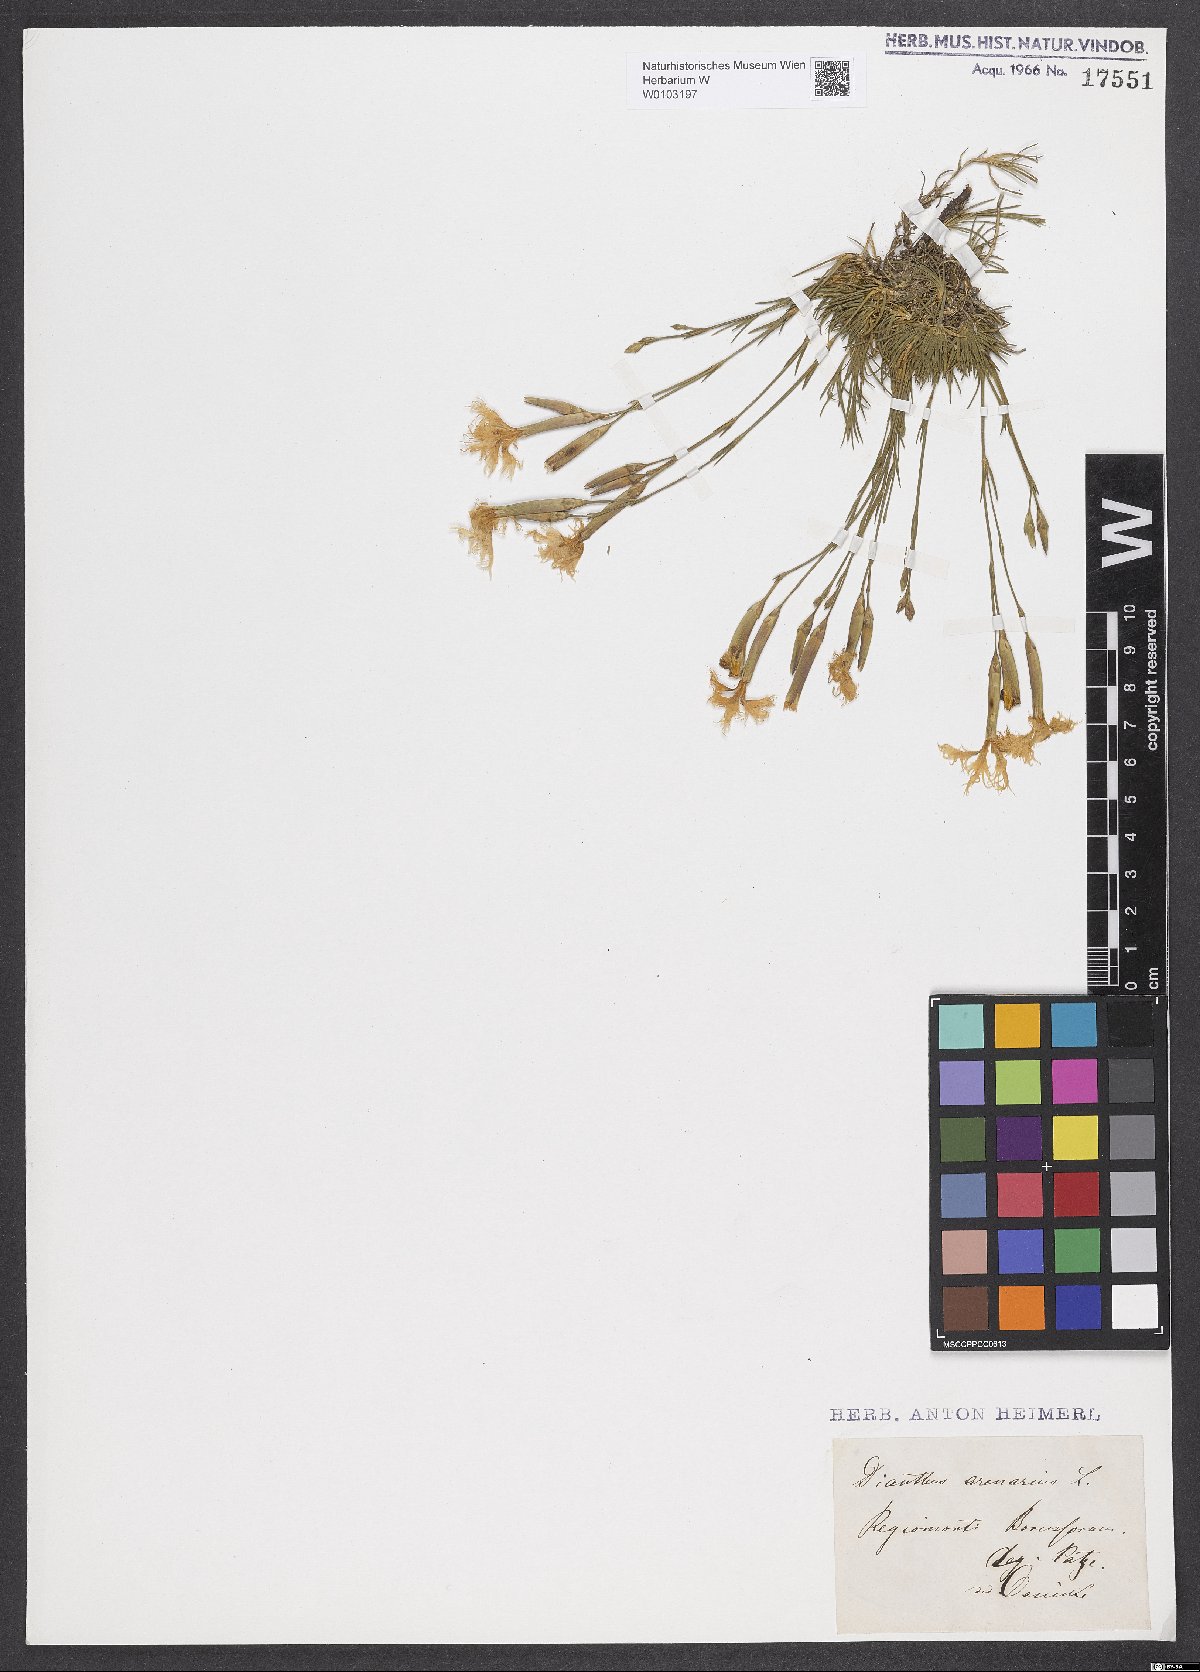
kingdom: Plantae
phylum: Tracheophyta
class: Magnoliopsida
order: Caryophyllales
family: Caryophyllaceae
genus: Dianthus
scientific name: Dianthus arenarius
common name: Stone pink
